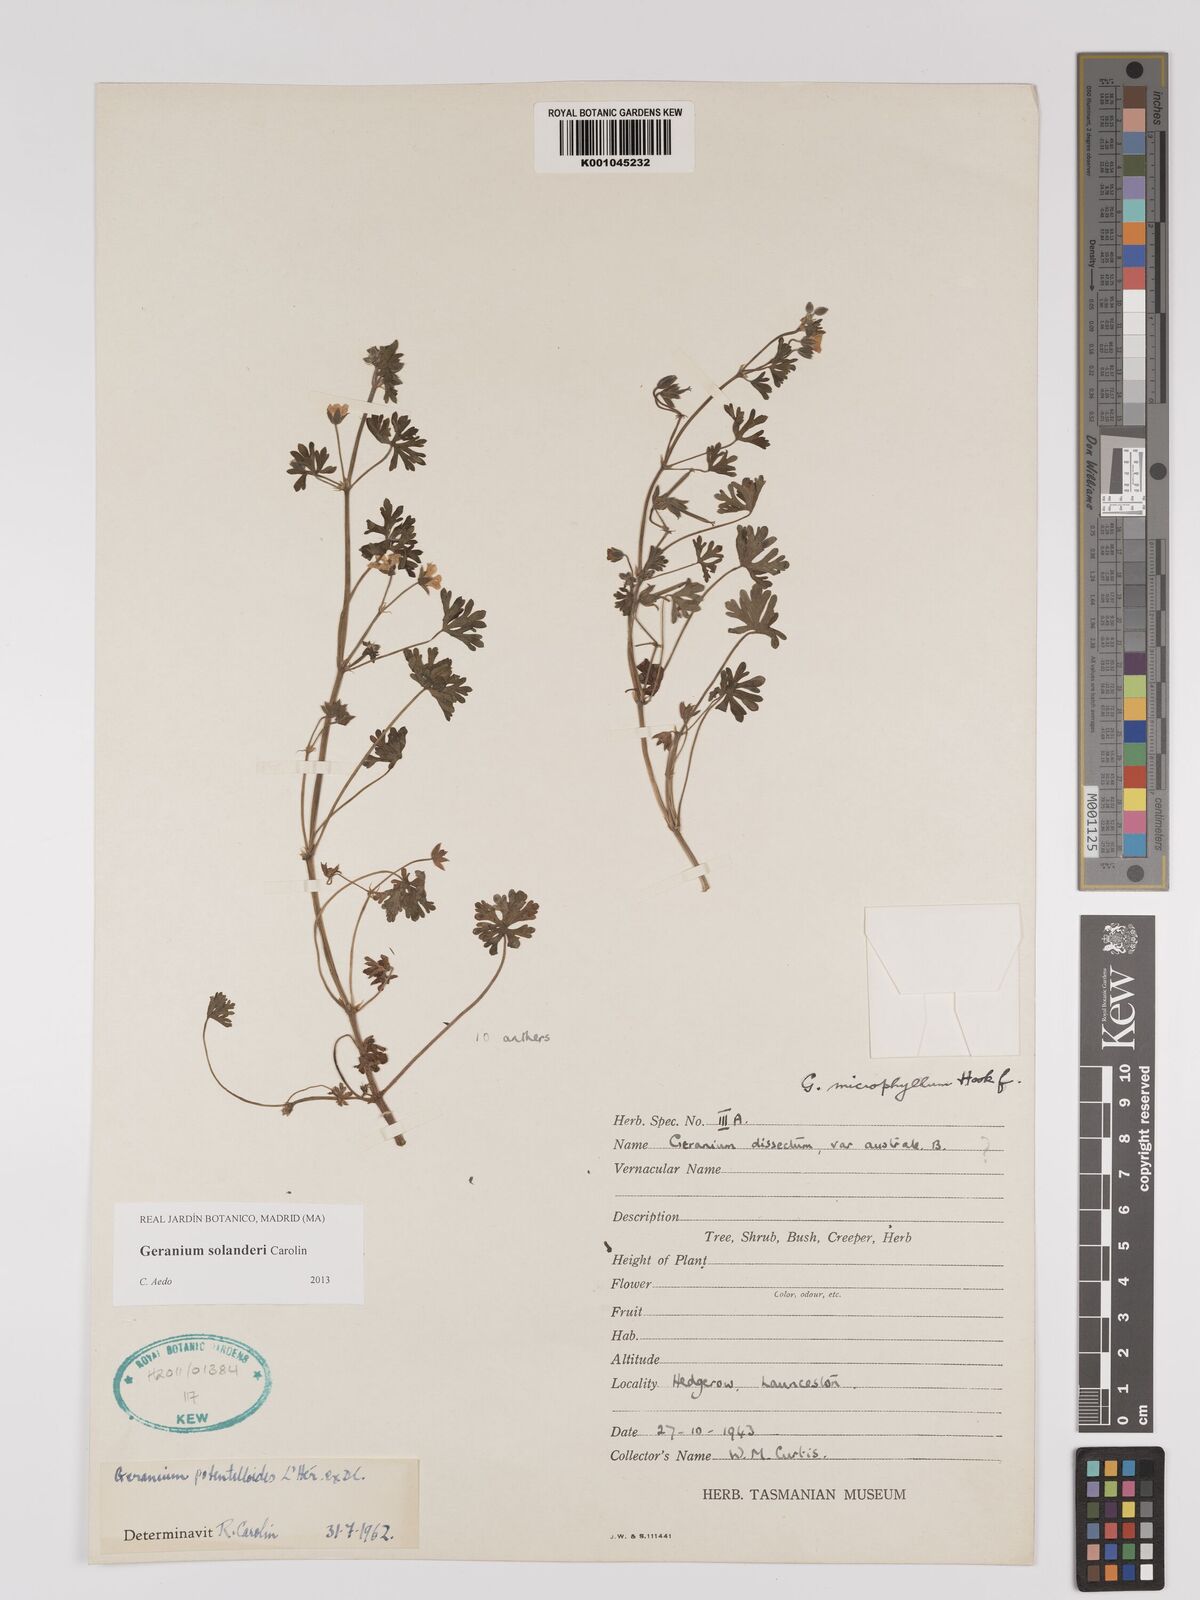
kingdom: Plantae
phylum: Tracheophyta
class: Magnoliopsida
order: Geraniales
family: Geraniaceae
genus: Geranium
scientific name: Geranium solanderi
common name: Solander's geranium
